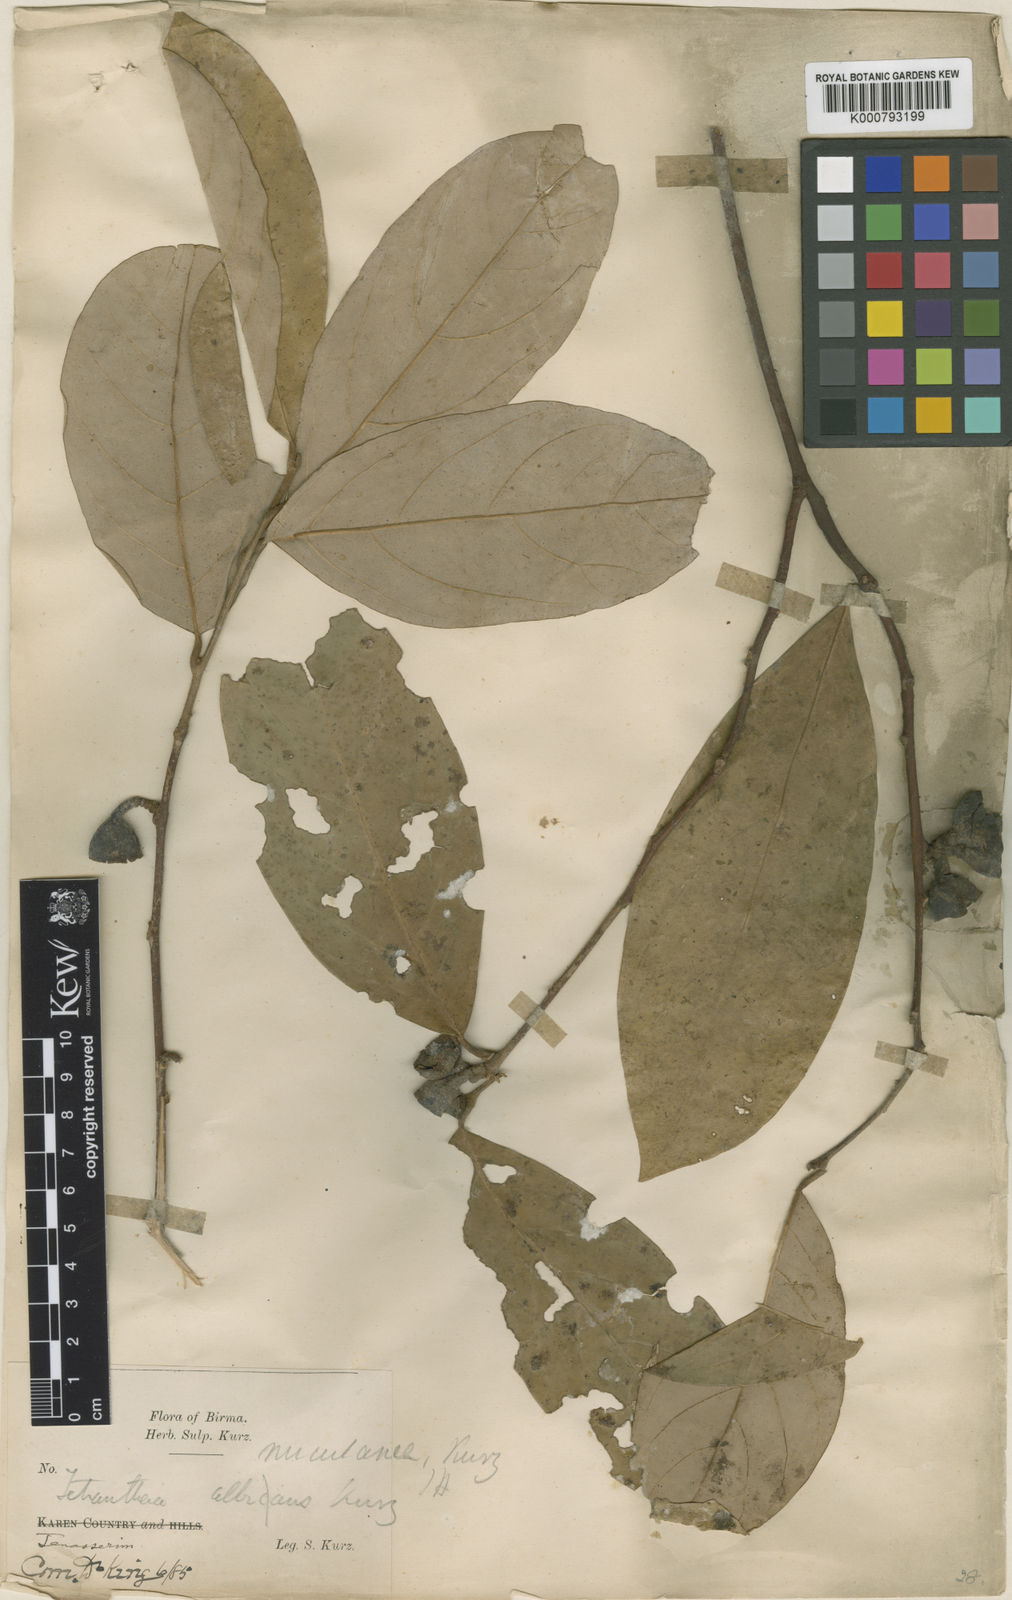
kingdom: Plantae
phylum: Tracheophyta
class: Magnoliopsida
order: Laurales
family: Lauraceae
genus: Litsea
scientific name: Litsea nuculanea
